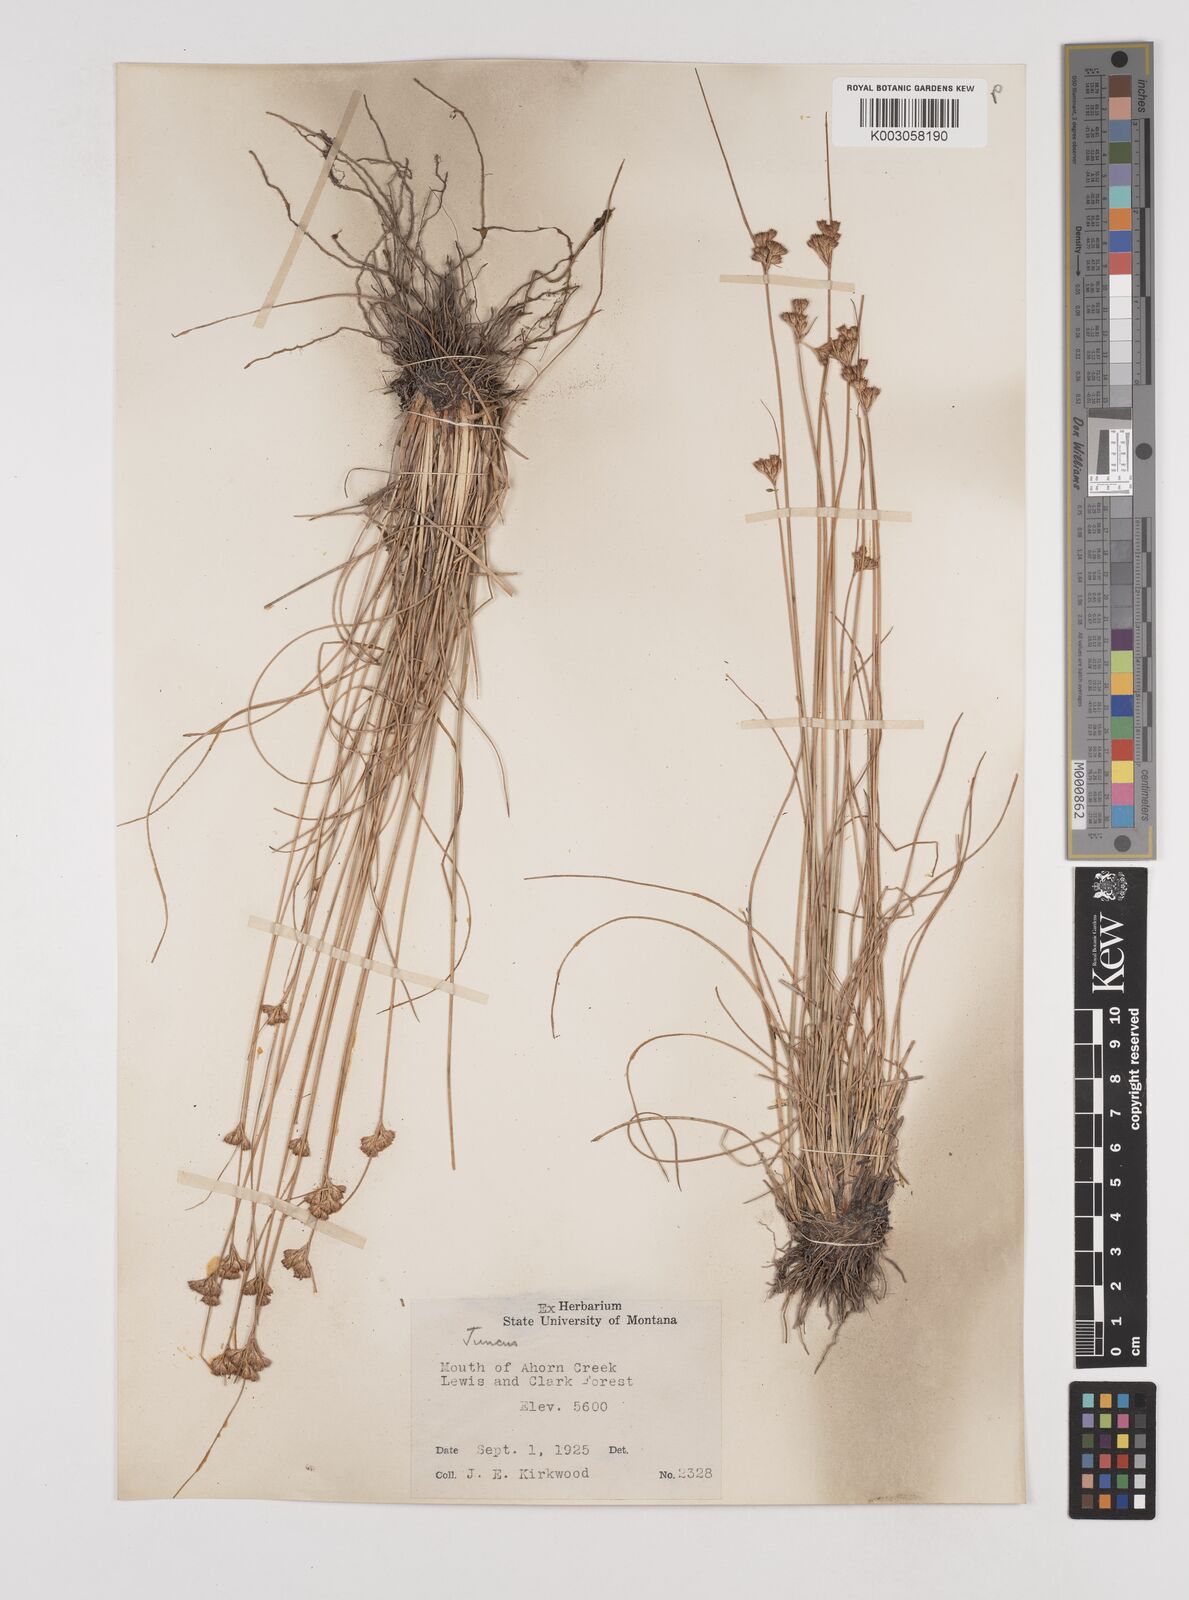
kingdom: Plantae
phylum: Tracheophyta
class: Liliopsida
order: Poales
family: Juncaceae
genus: Juncus
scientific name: Juncus
